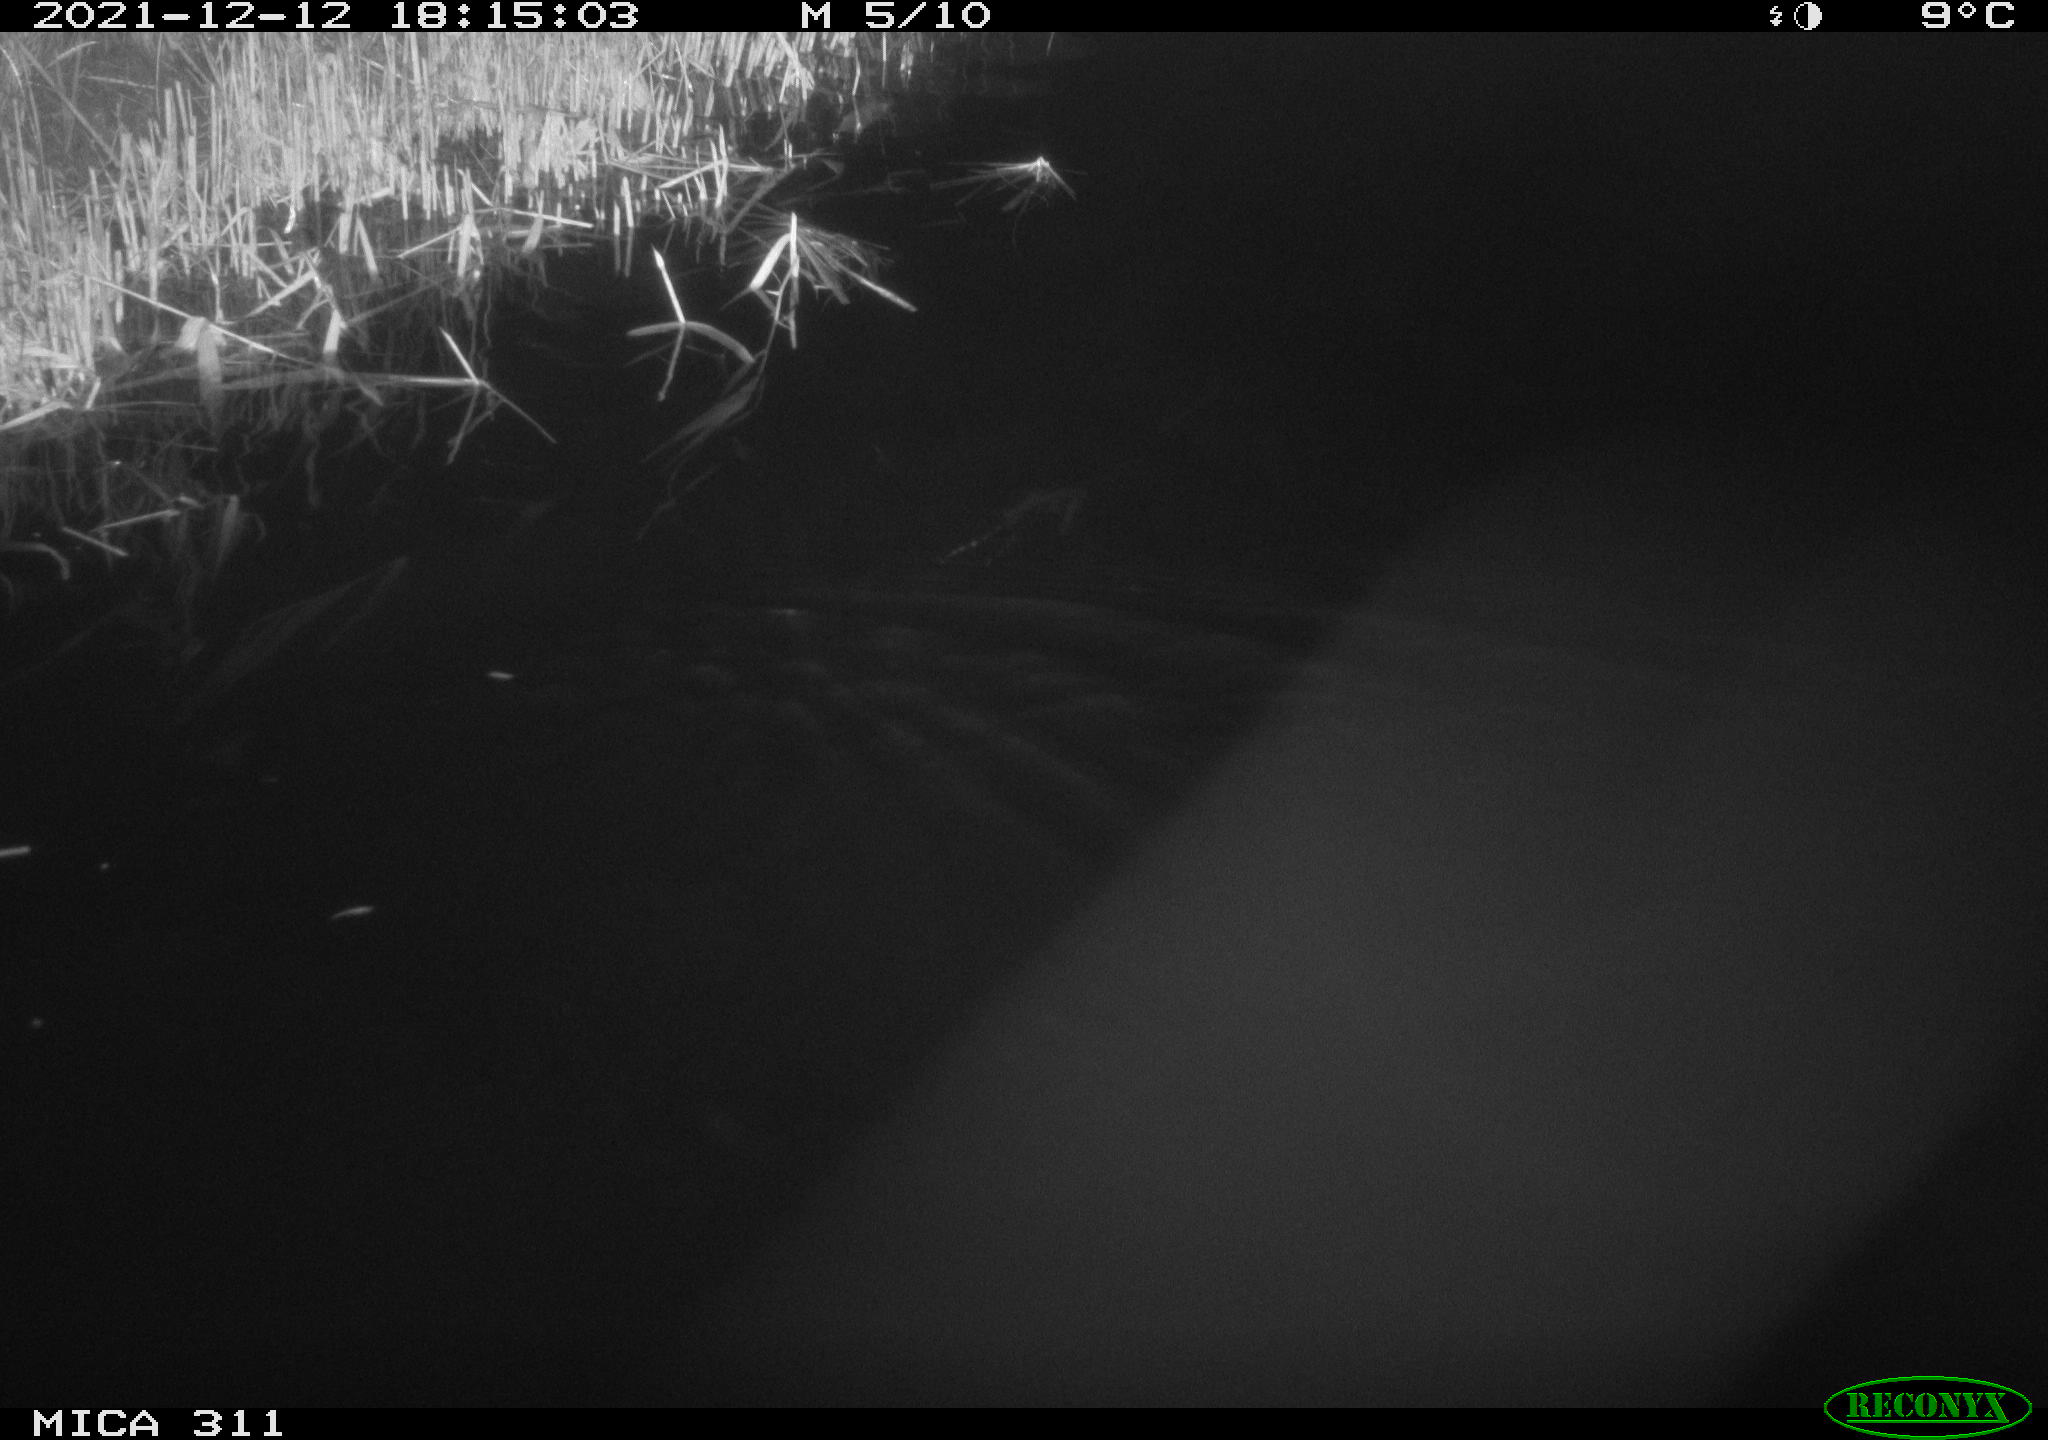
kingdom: Animalia
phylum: Chordata
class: Mammalia
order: Rodentia
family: Muridae
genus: Rattus
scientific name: Rattus norvegicus
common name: Brown rat
